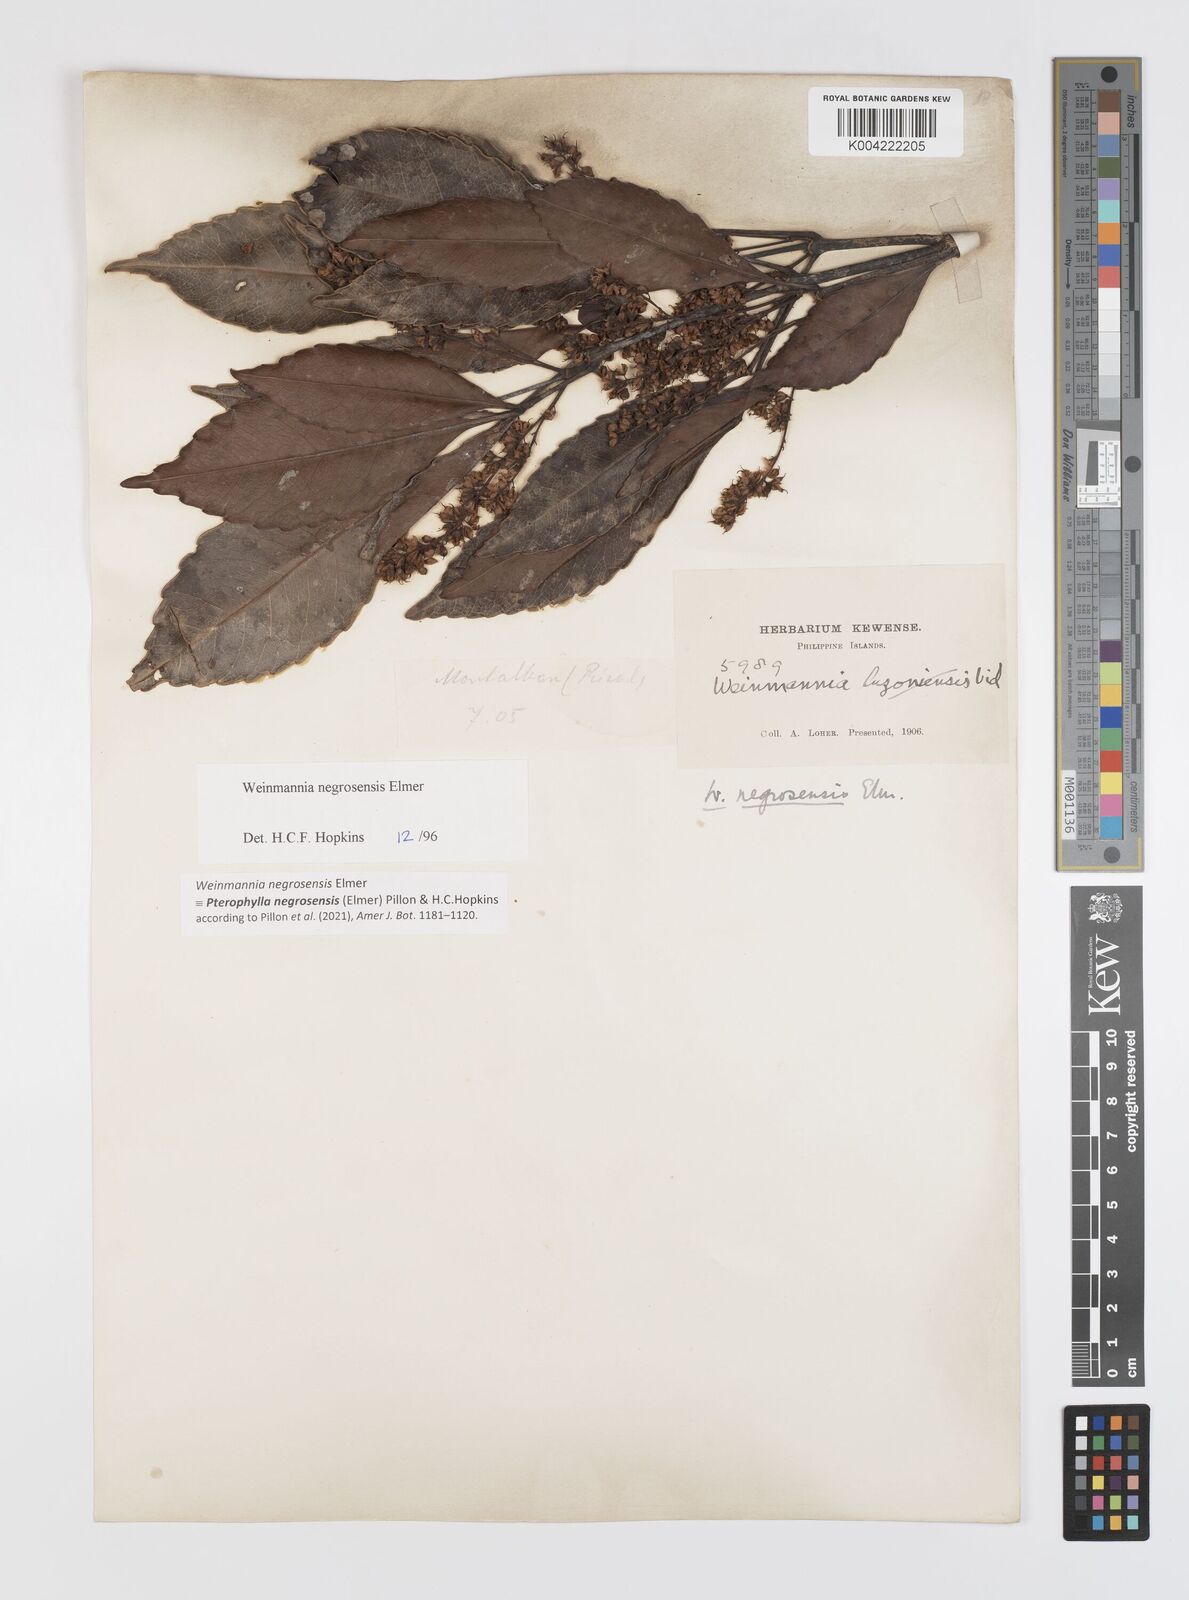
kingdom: Plantae
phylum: Tracheophyta
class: Magnoliopsida
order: Oxalidales
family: Cunoniaceae
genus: Pterophylla
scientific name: Pterophylla negrosensis
